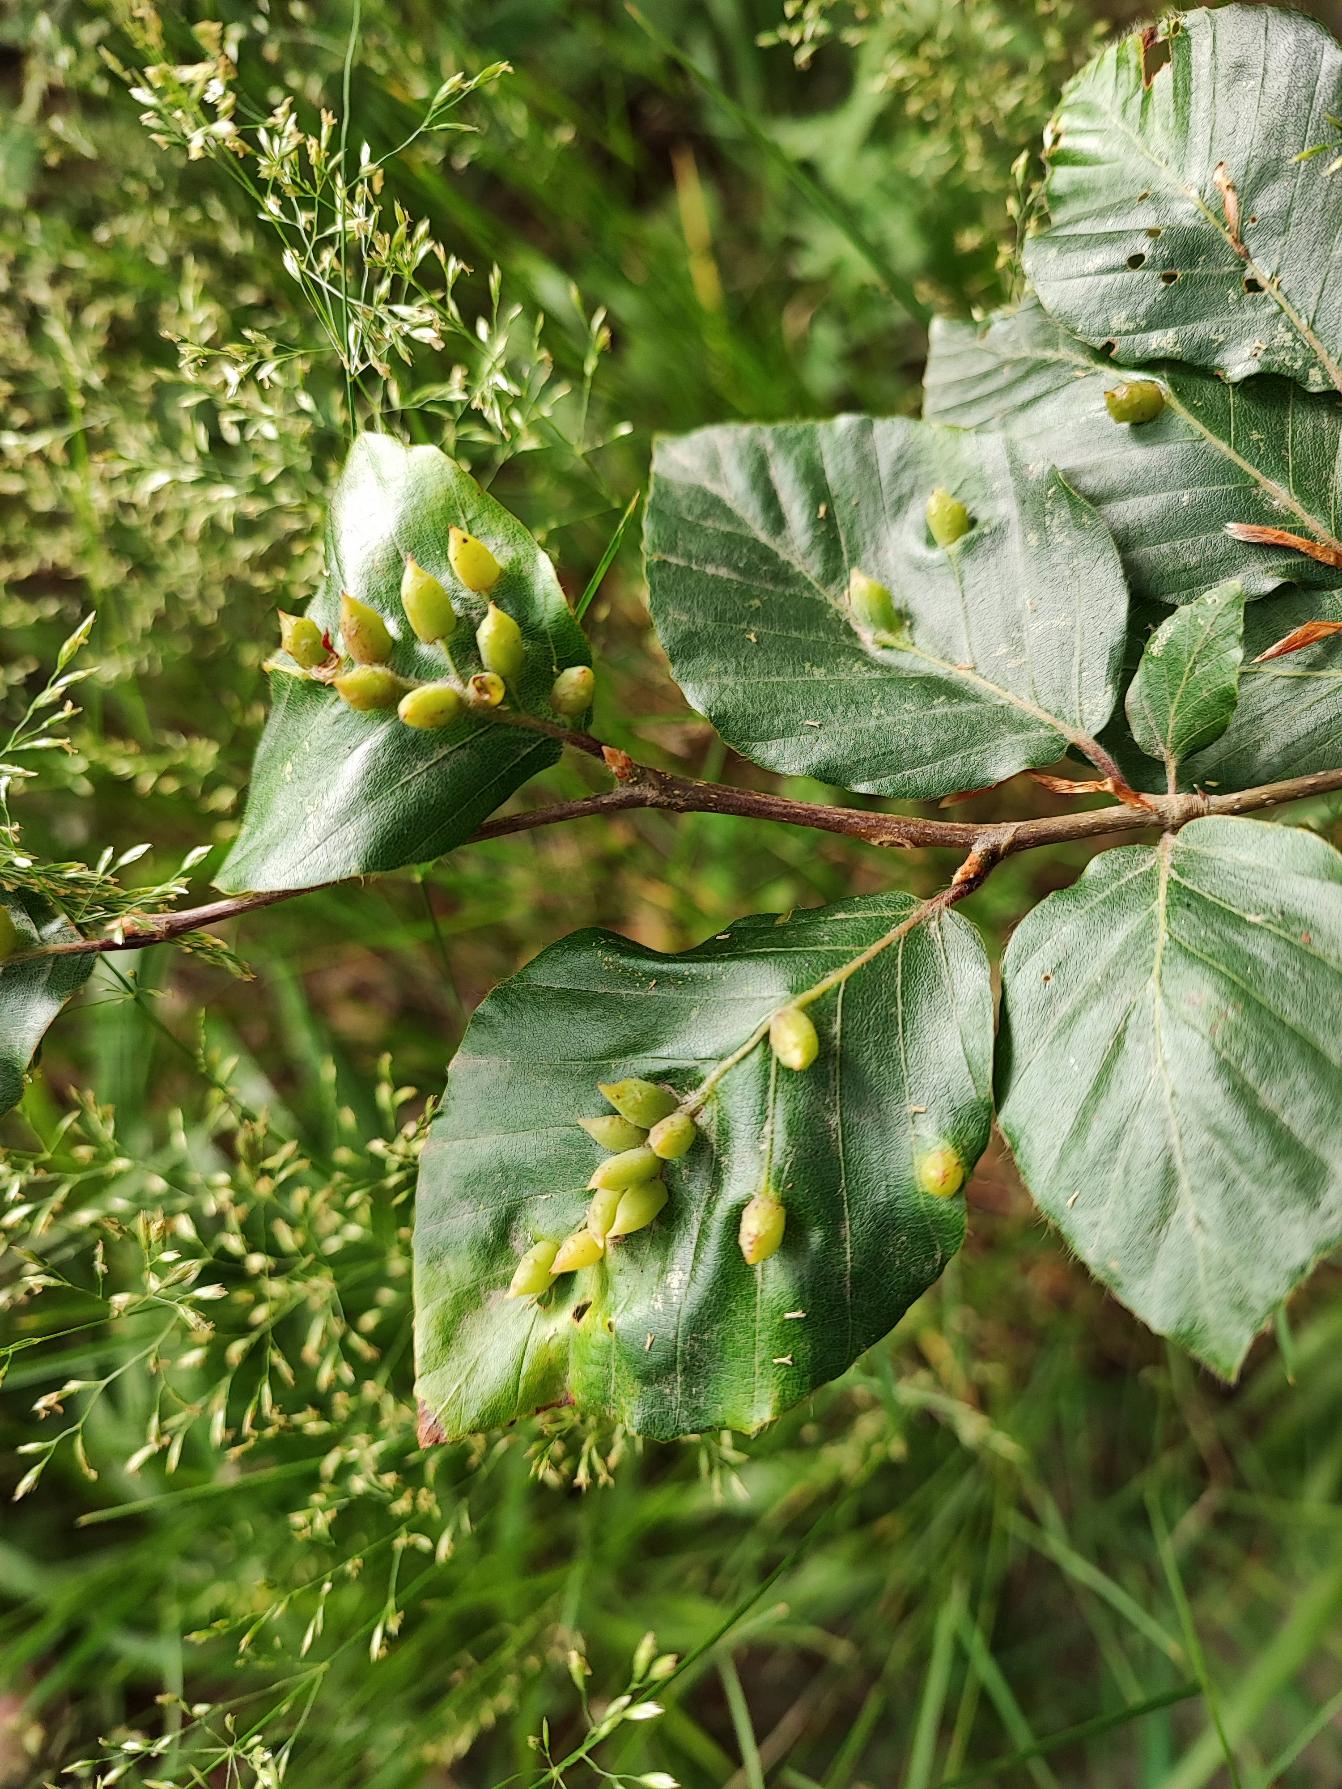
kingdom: Animalia
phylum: Arthropoda
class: Insecta
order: Diptera
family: Cecidomyiidae
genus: Mikiola
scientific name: Mikiola fagi
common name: Bøgegalmyg
